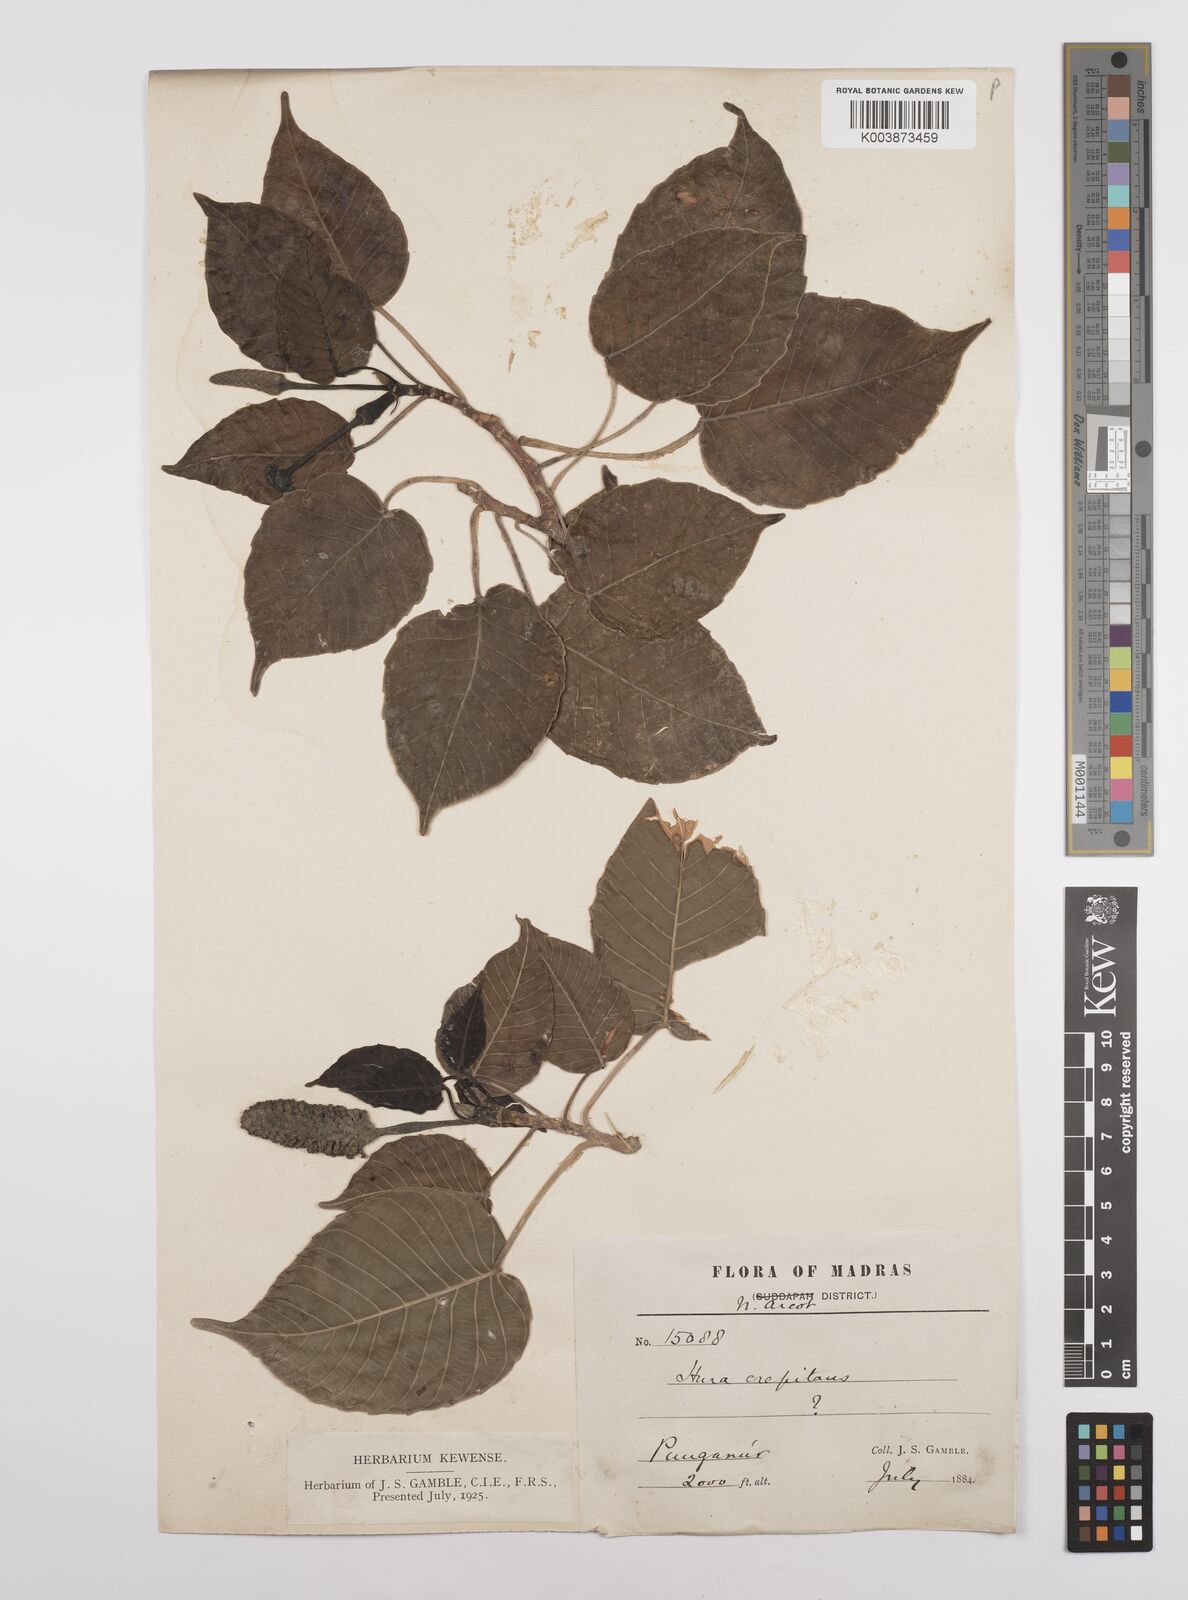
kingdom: Plantae
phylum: Tracheophyta
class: Magnoliopsida
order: Malpighiales
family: Euphorbiaceae
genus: Hura
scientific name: Hura crepitans
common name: Sandboxtree
